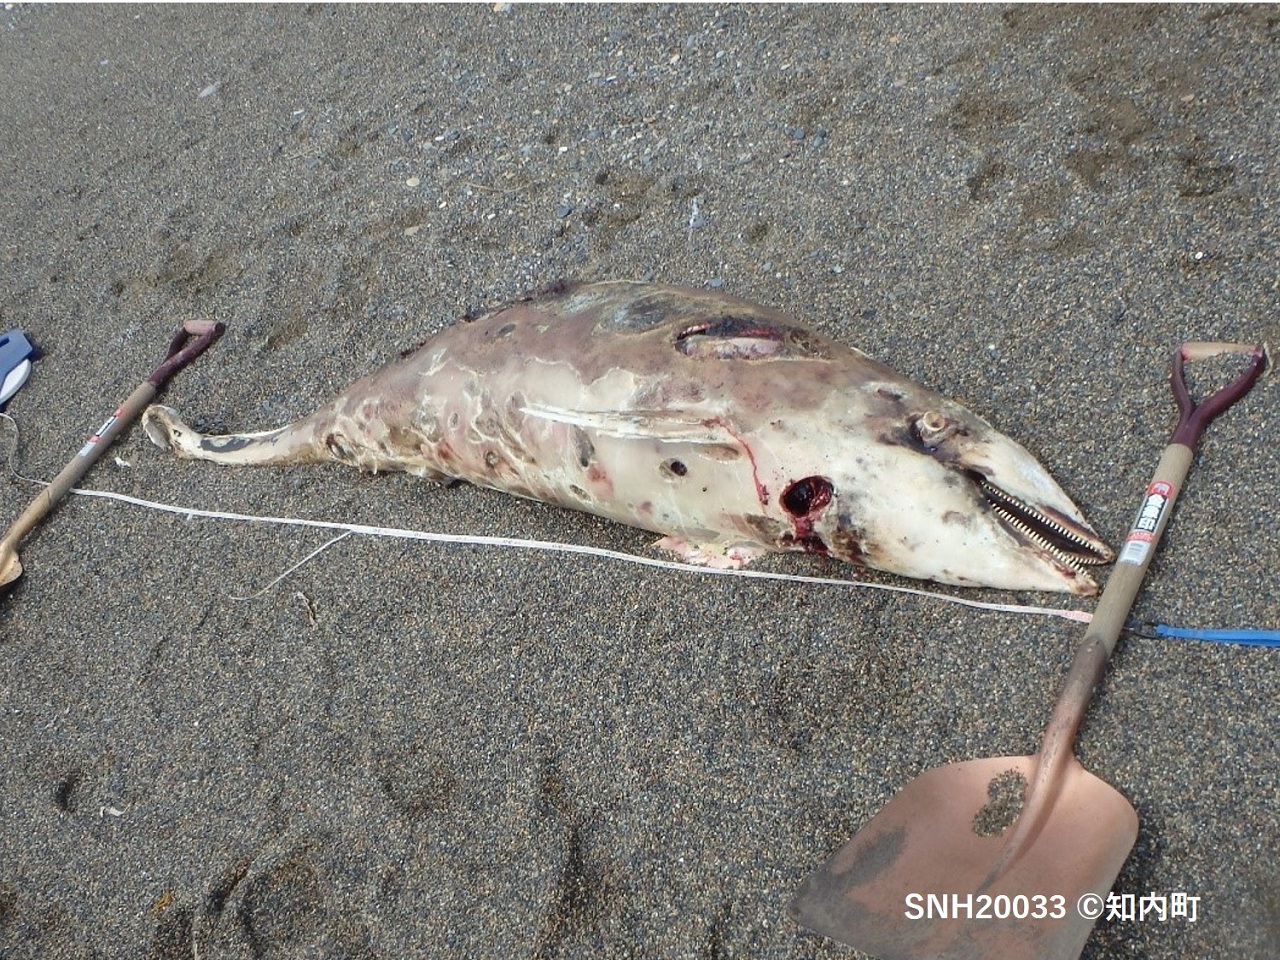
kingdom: Animalia
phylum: Chordata
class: Mammalia
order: Cetacea
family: Delphinidae
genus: Lagenorhynchus
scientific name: Lagenorhynchus obliquidens
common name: Pacific white-sided dolphin
